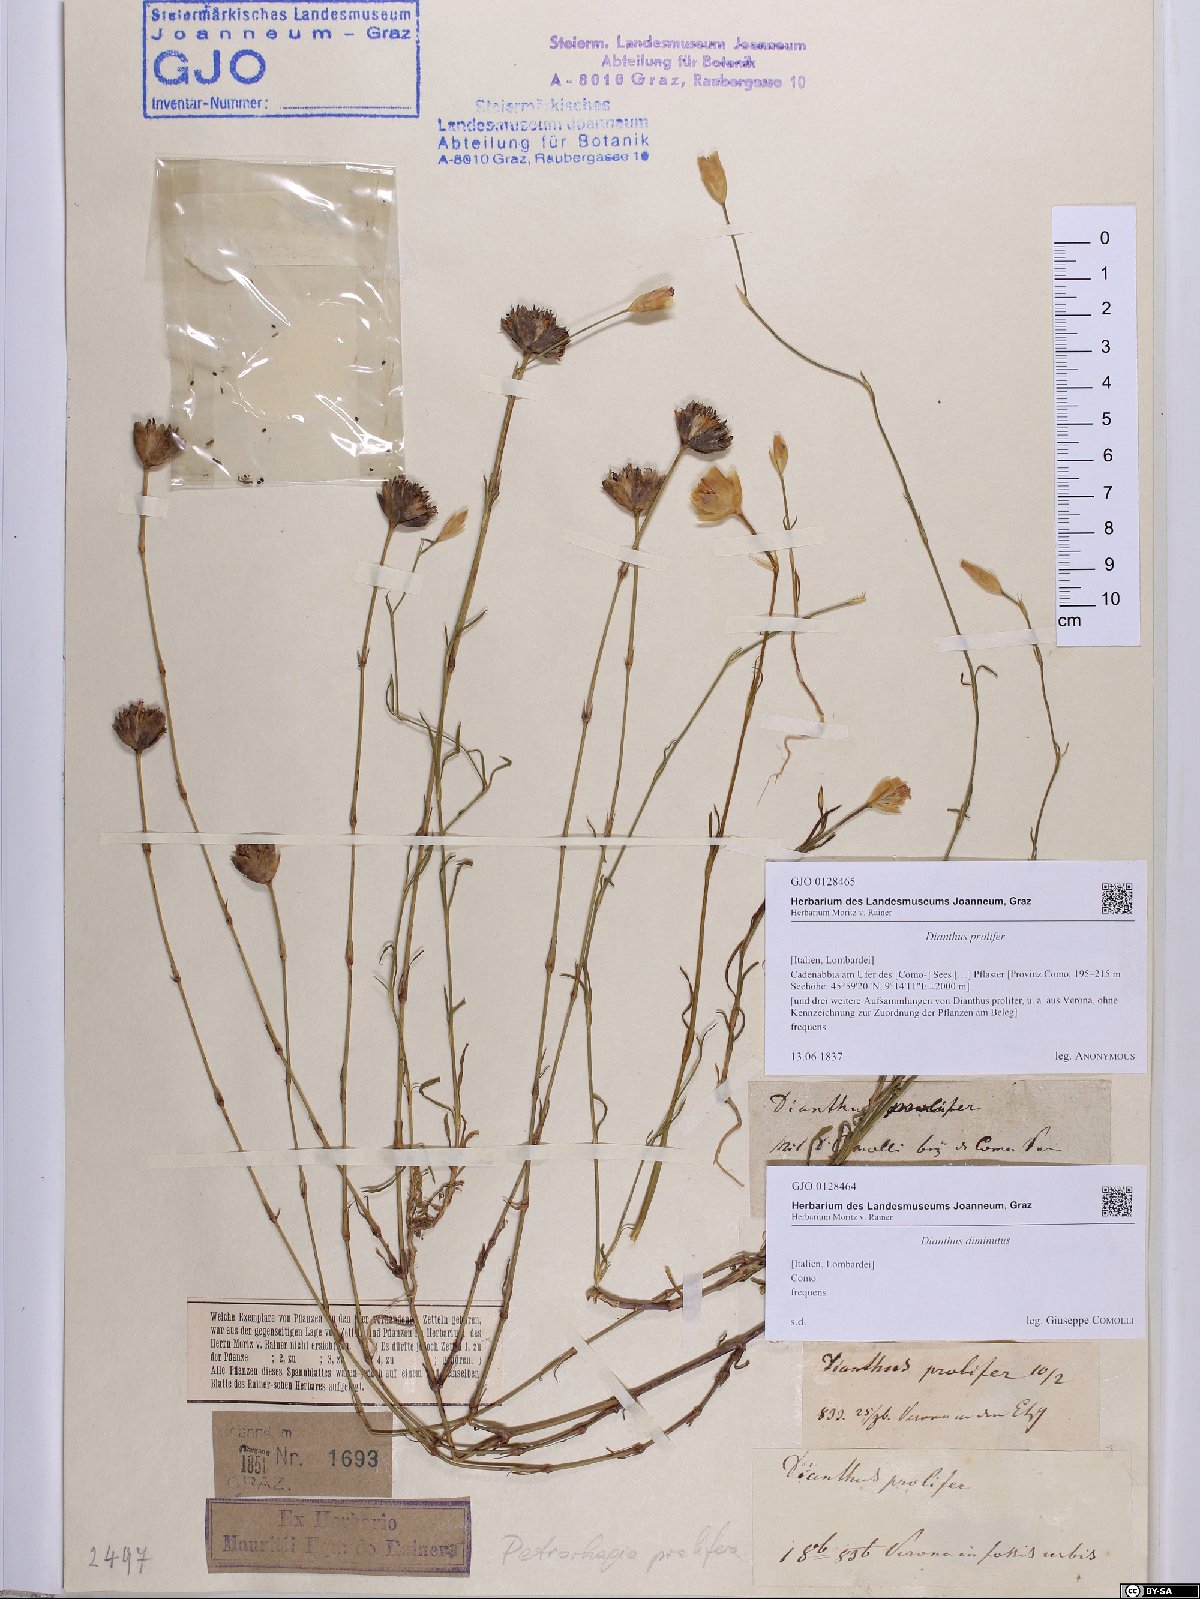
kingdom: Plantae
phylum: Tracheophyta
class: Magnoliopsida
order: Caryophyllales
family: Caryophyllaceae
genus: Petrorhagia
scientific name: Petrorhagia prolifera
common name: Proliferous pink
